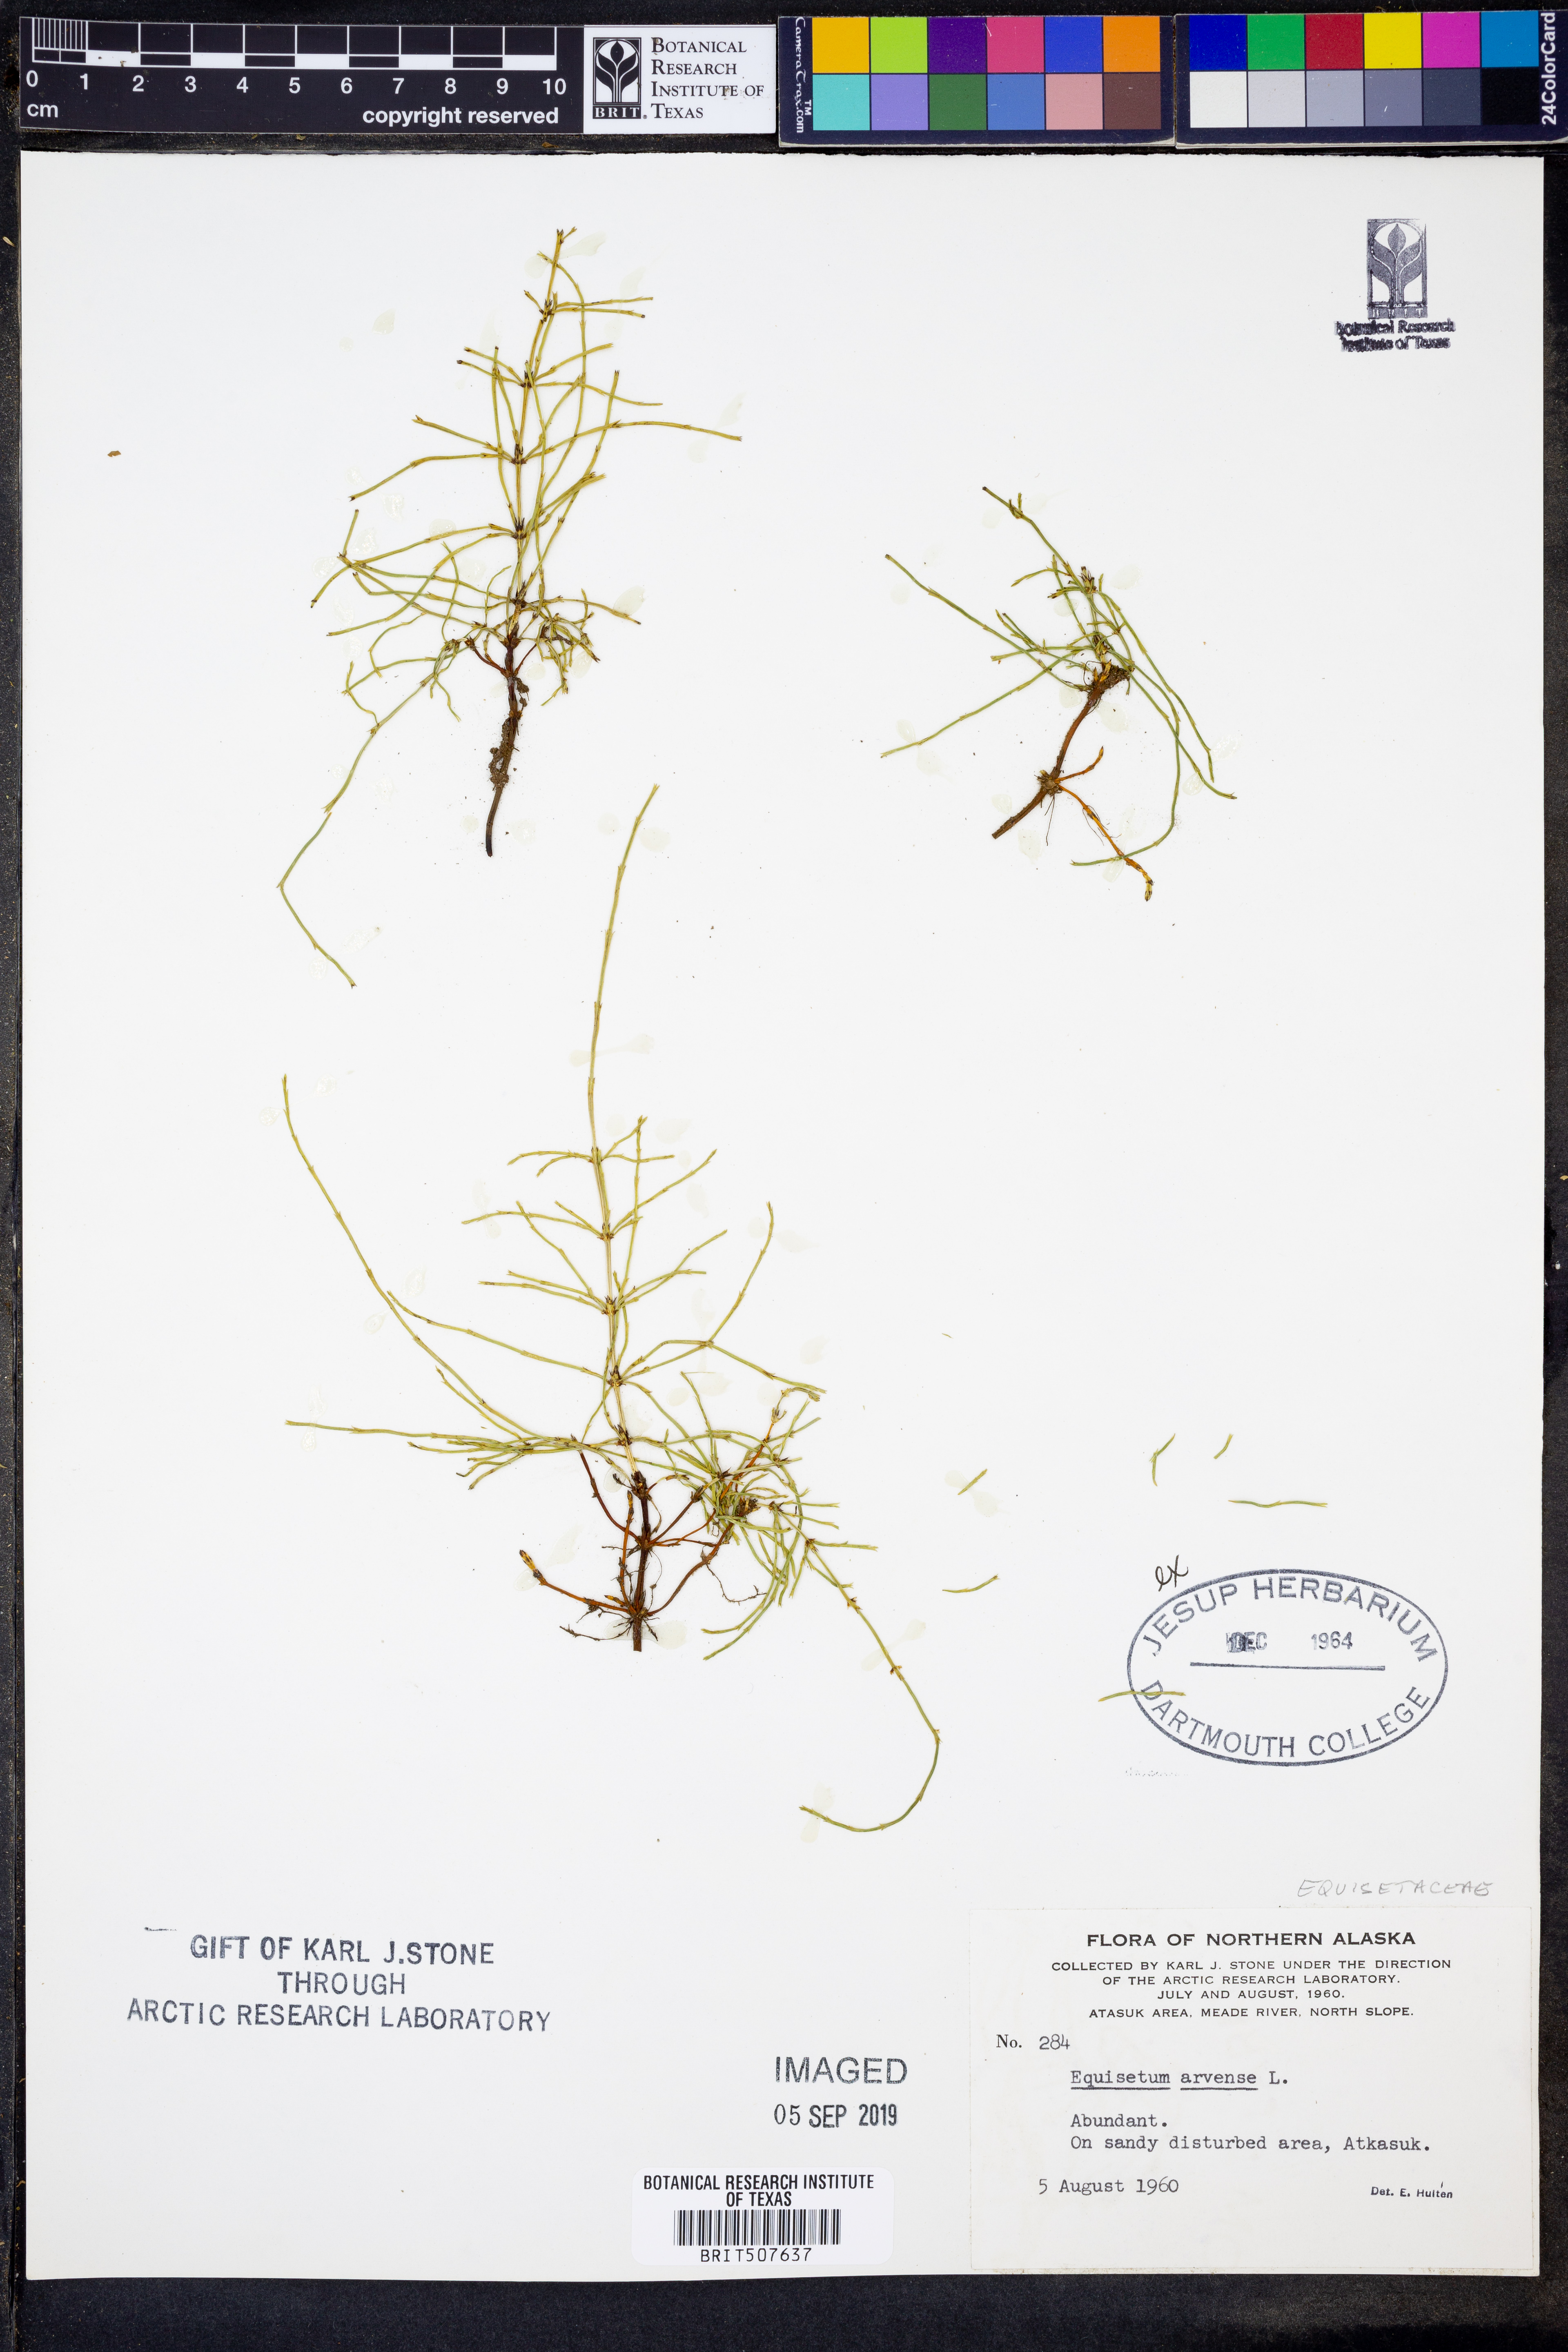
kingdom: Plantae
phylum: Tracheophyta
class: Polypodiopsida
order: Equisetales
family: Equisetaceae
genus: Equisetum
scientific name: Equisetum arvense
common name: Field horsetail
